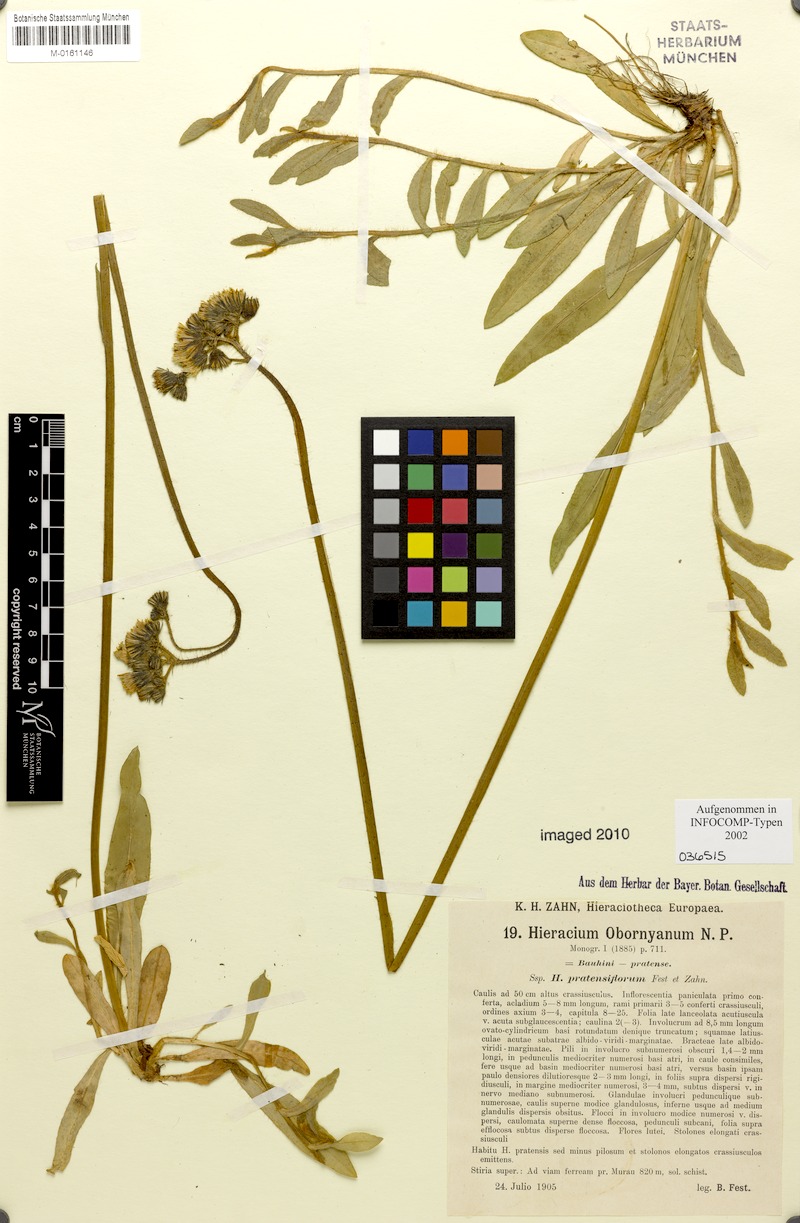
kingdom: Plantae
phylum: Tracheophyta
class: Magnoliopsida
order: Asterales
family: Asteraceae
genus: Pilosella
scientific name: Pilosella polymastix
